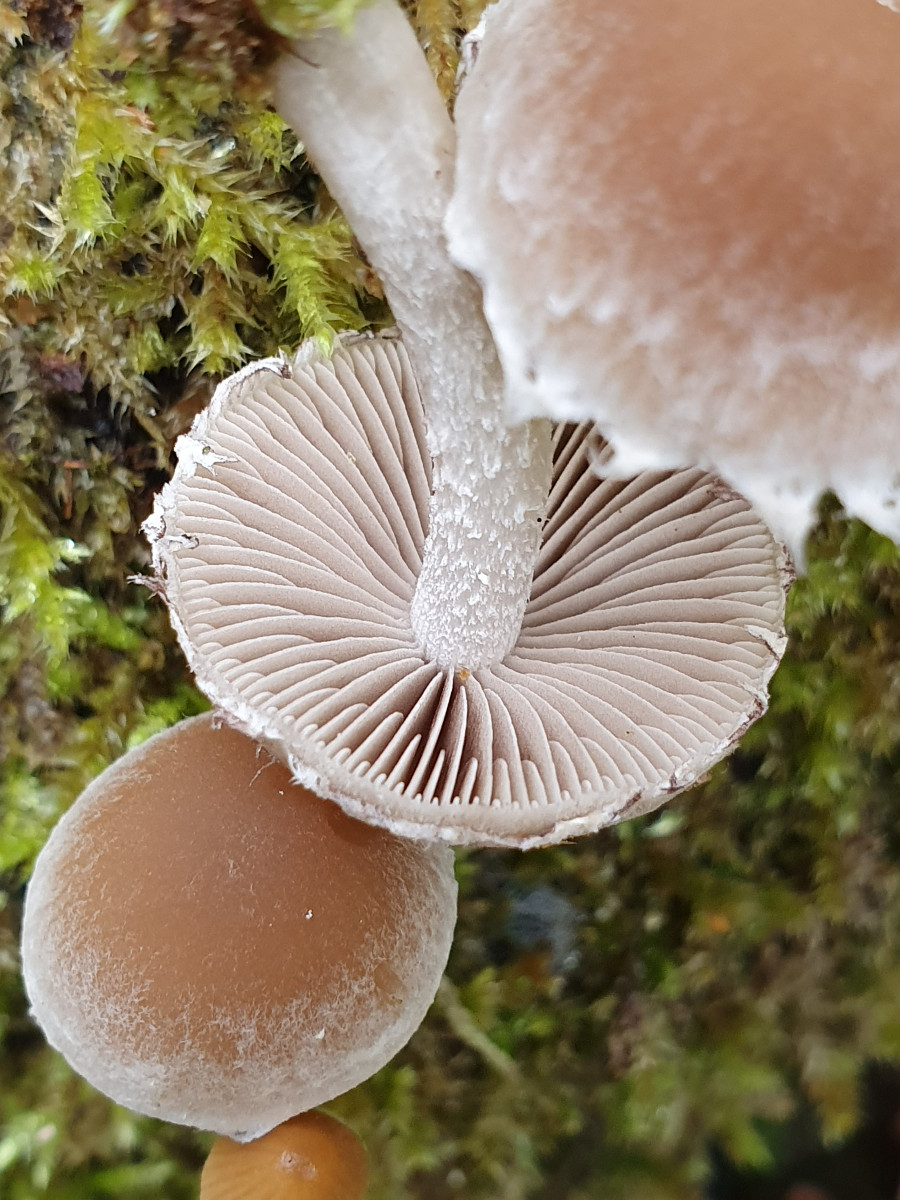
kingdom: Fungi
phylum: Basidiomycota
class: Agaricomycetes
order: Agaricales
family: Psathyrellaceae
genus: Psathyrella
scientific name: Psathyrella spintrigeroides
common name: tandet mørkhat
